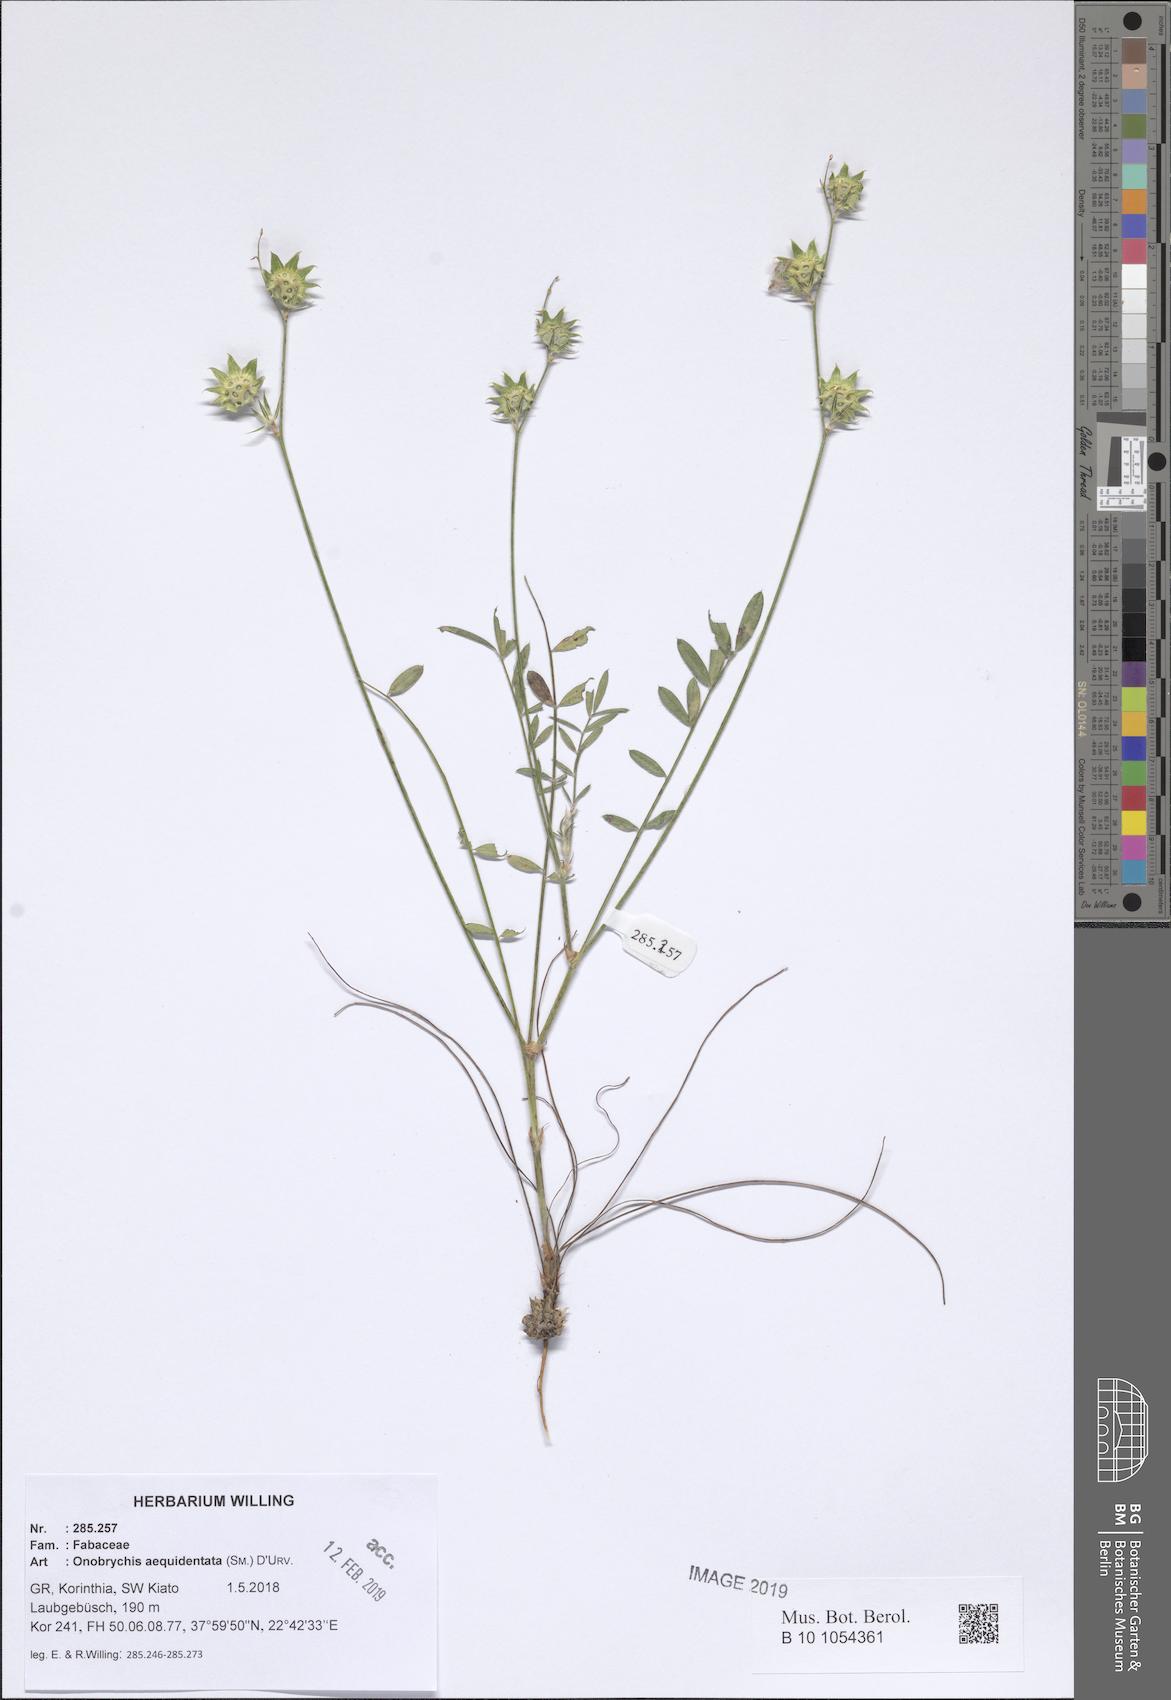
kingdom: Plantae
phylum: Tracheophyta
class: Magnoliopsida
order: Fabales
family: Fabaceae
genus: Onobrychis
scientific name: Onobrychis aequidentata
